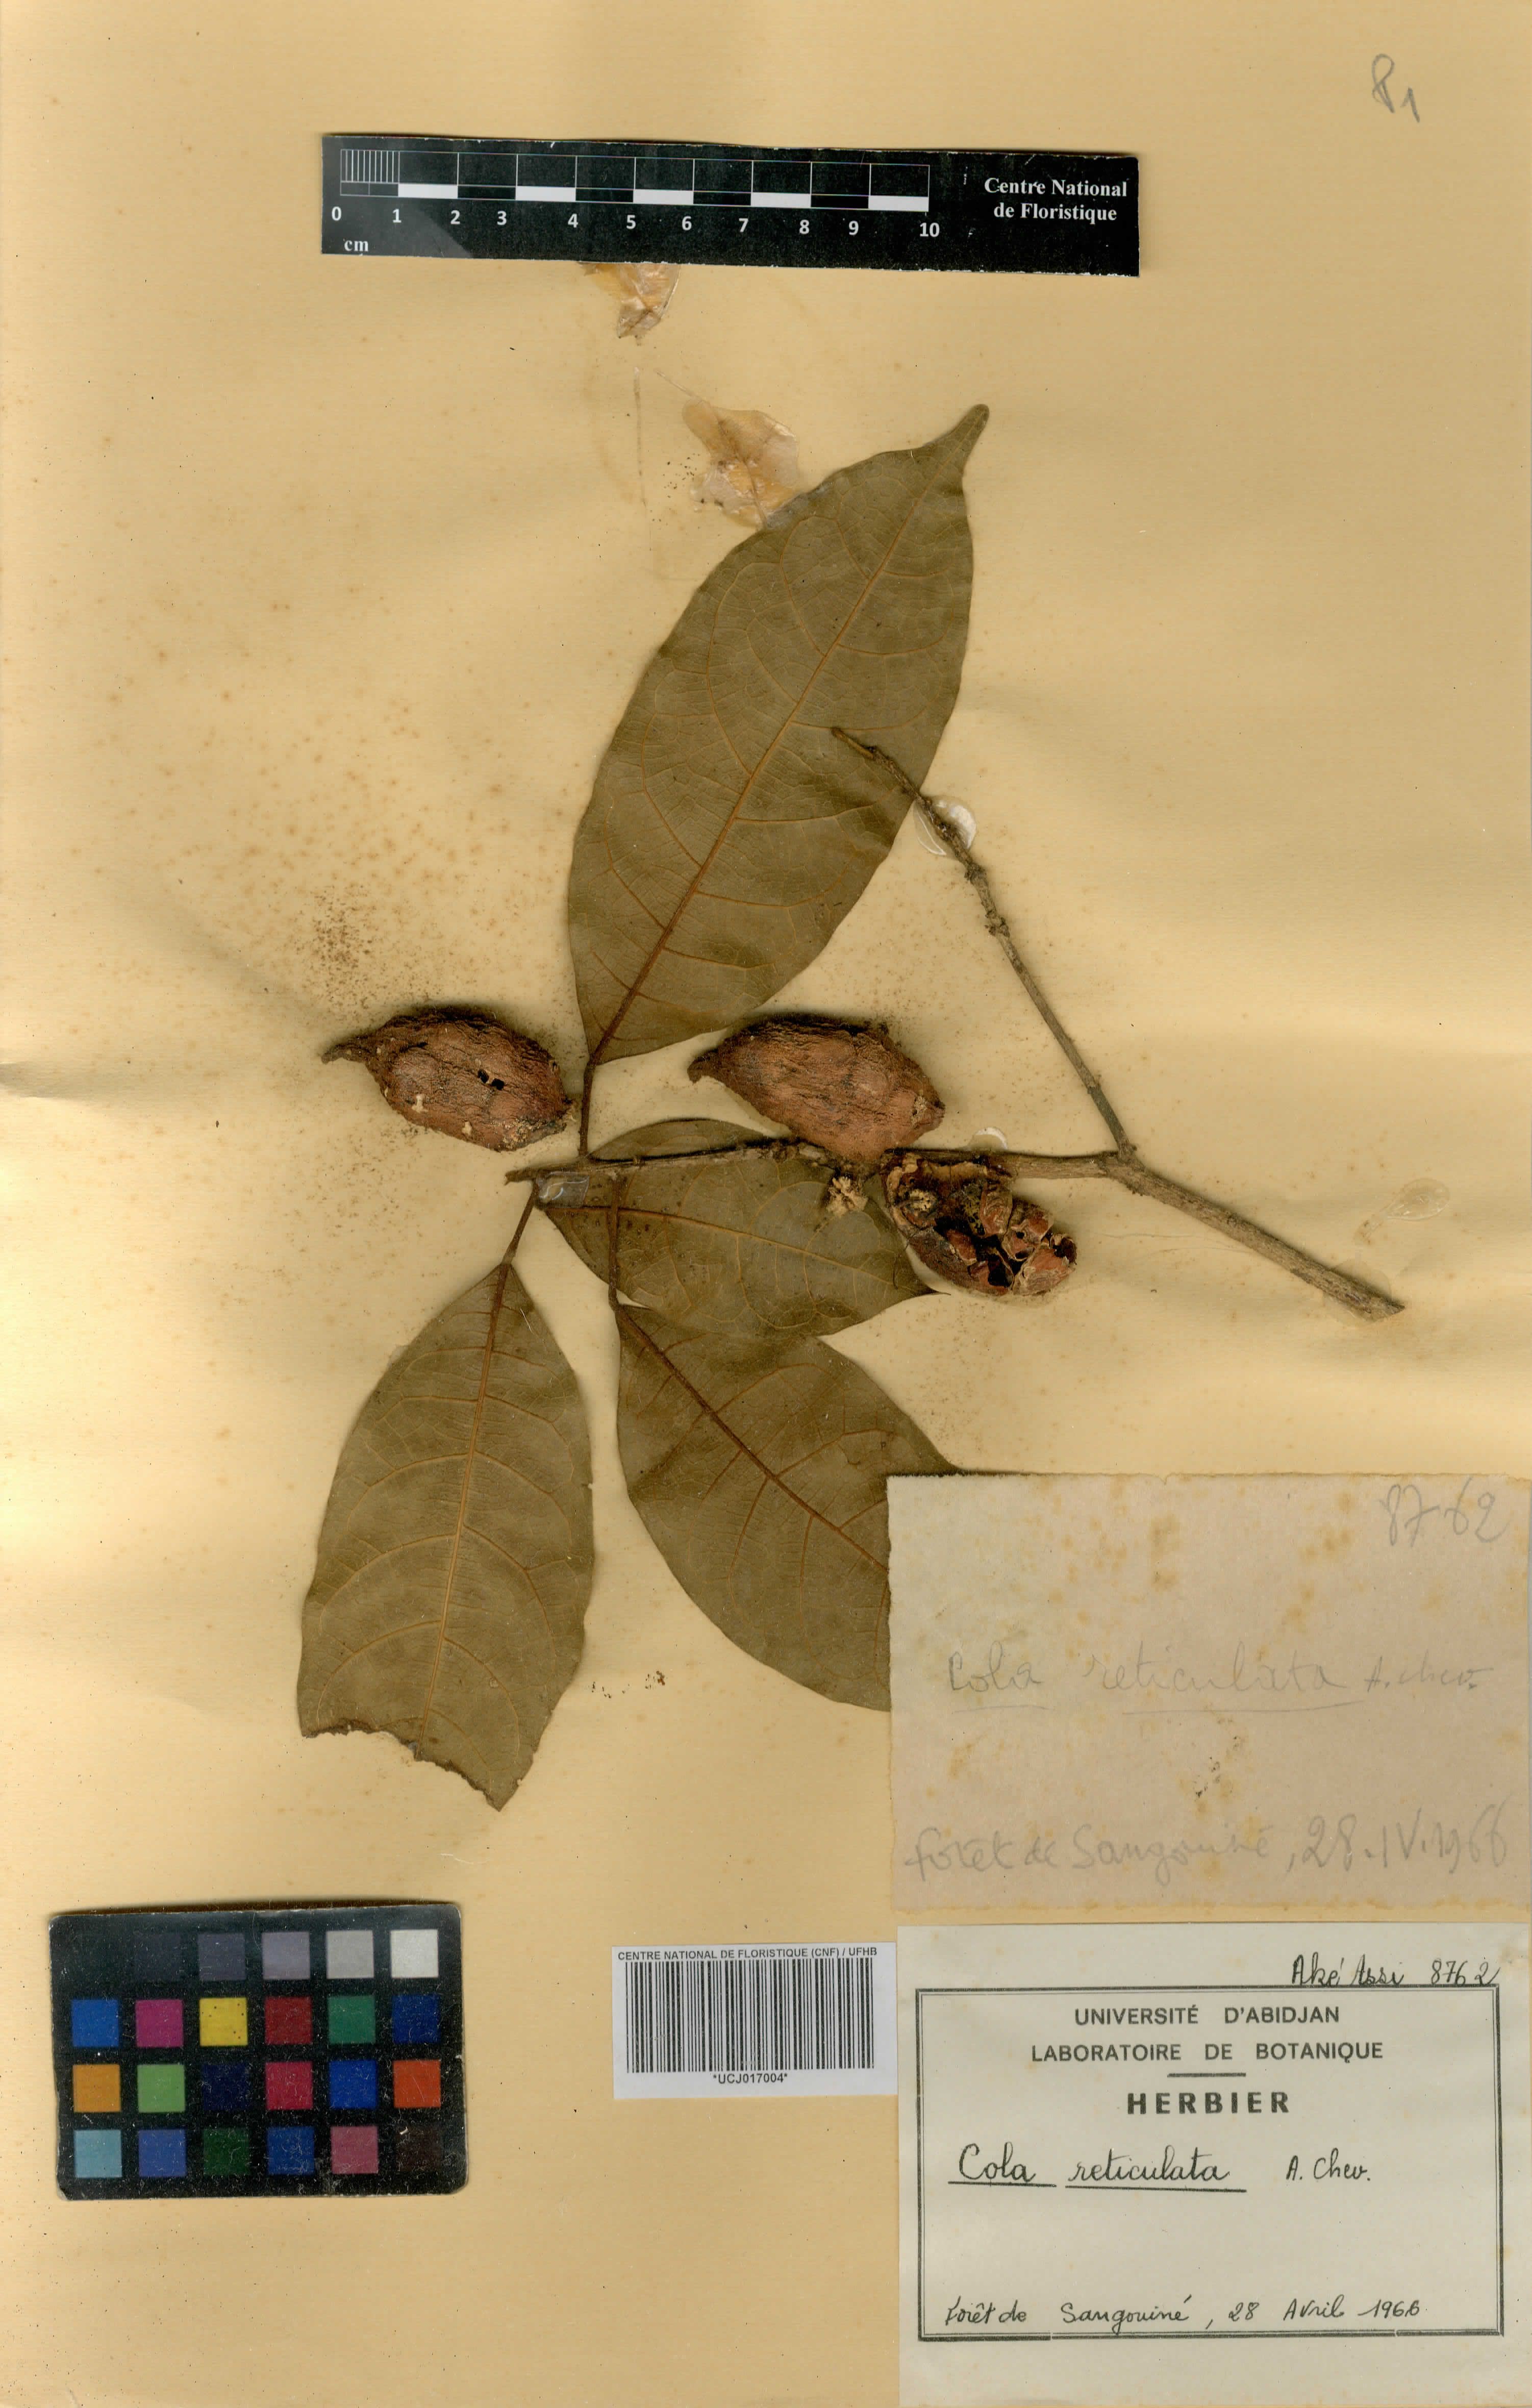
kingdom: Plantae
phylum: Tracheophyta
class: Magnoliopsida
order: Malvales
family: Malvaceae
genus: Cola
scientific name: Cola reticulata
